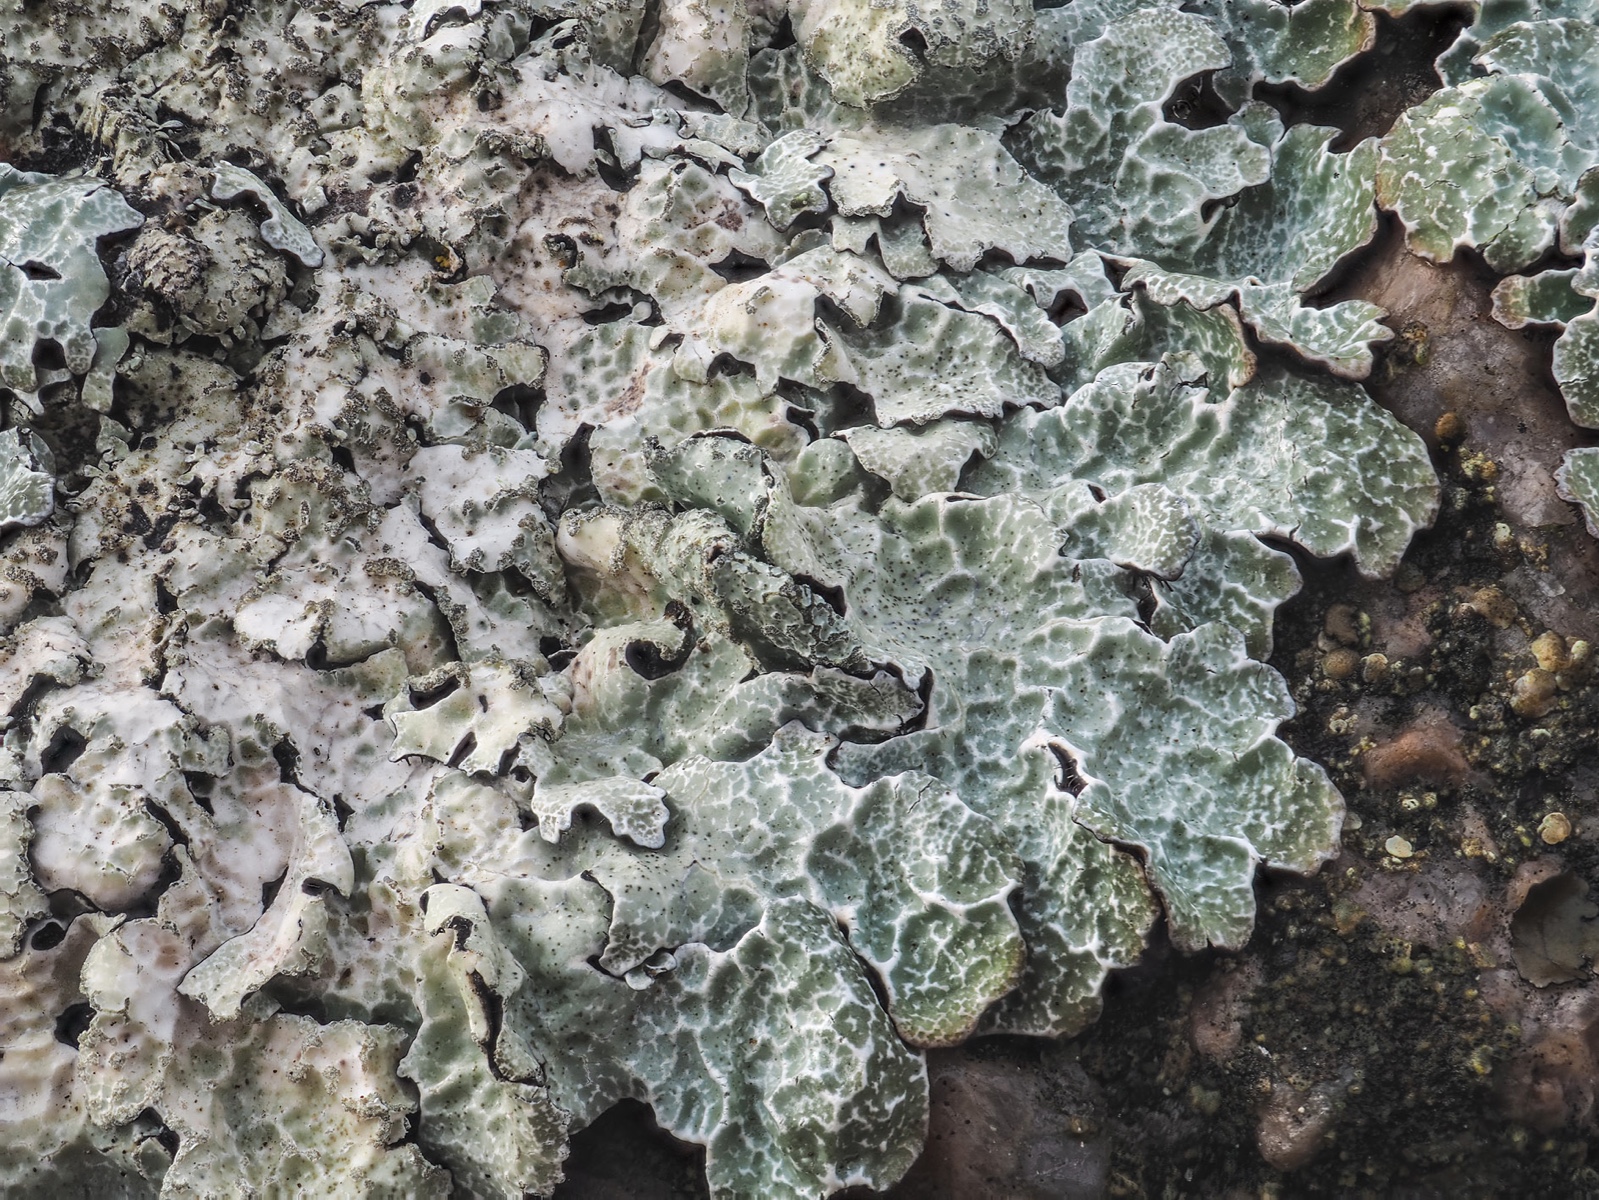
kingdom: Fungi
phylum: Ascomycota
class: Lecanoromycetes
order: Lecanorales
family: Parmeliaceae
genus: Parmelia
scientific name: Parmelia sulcata
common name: rynket skållav
